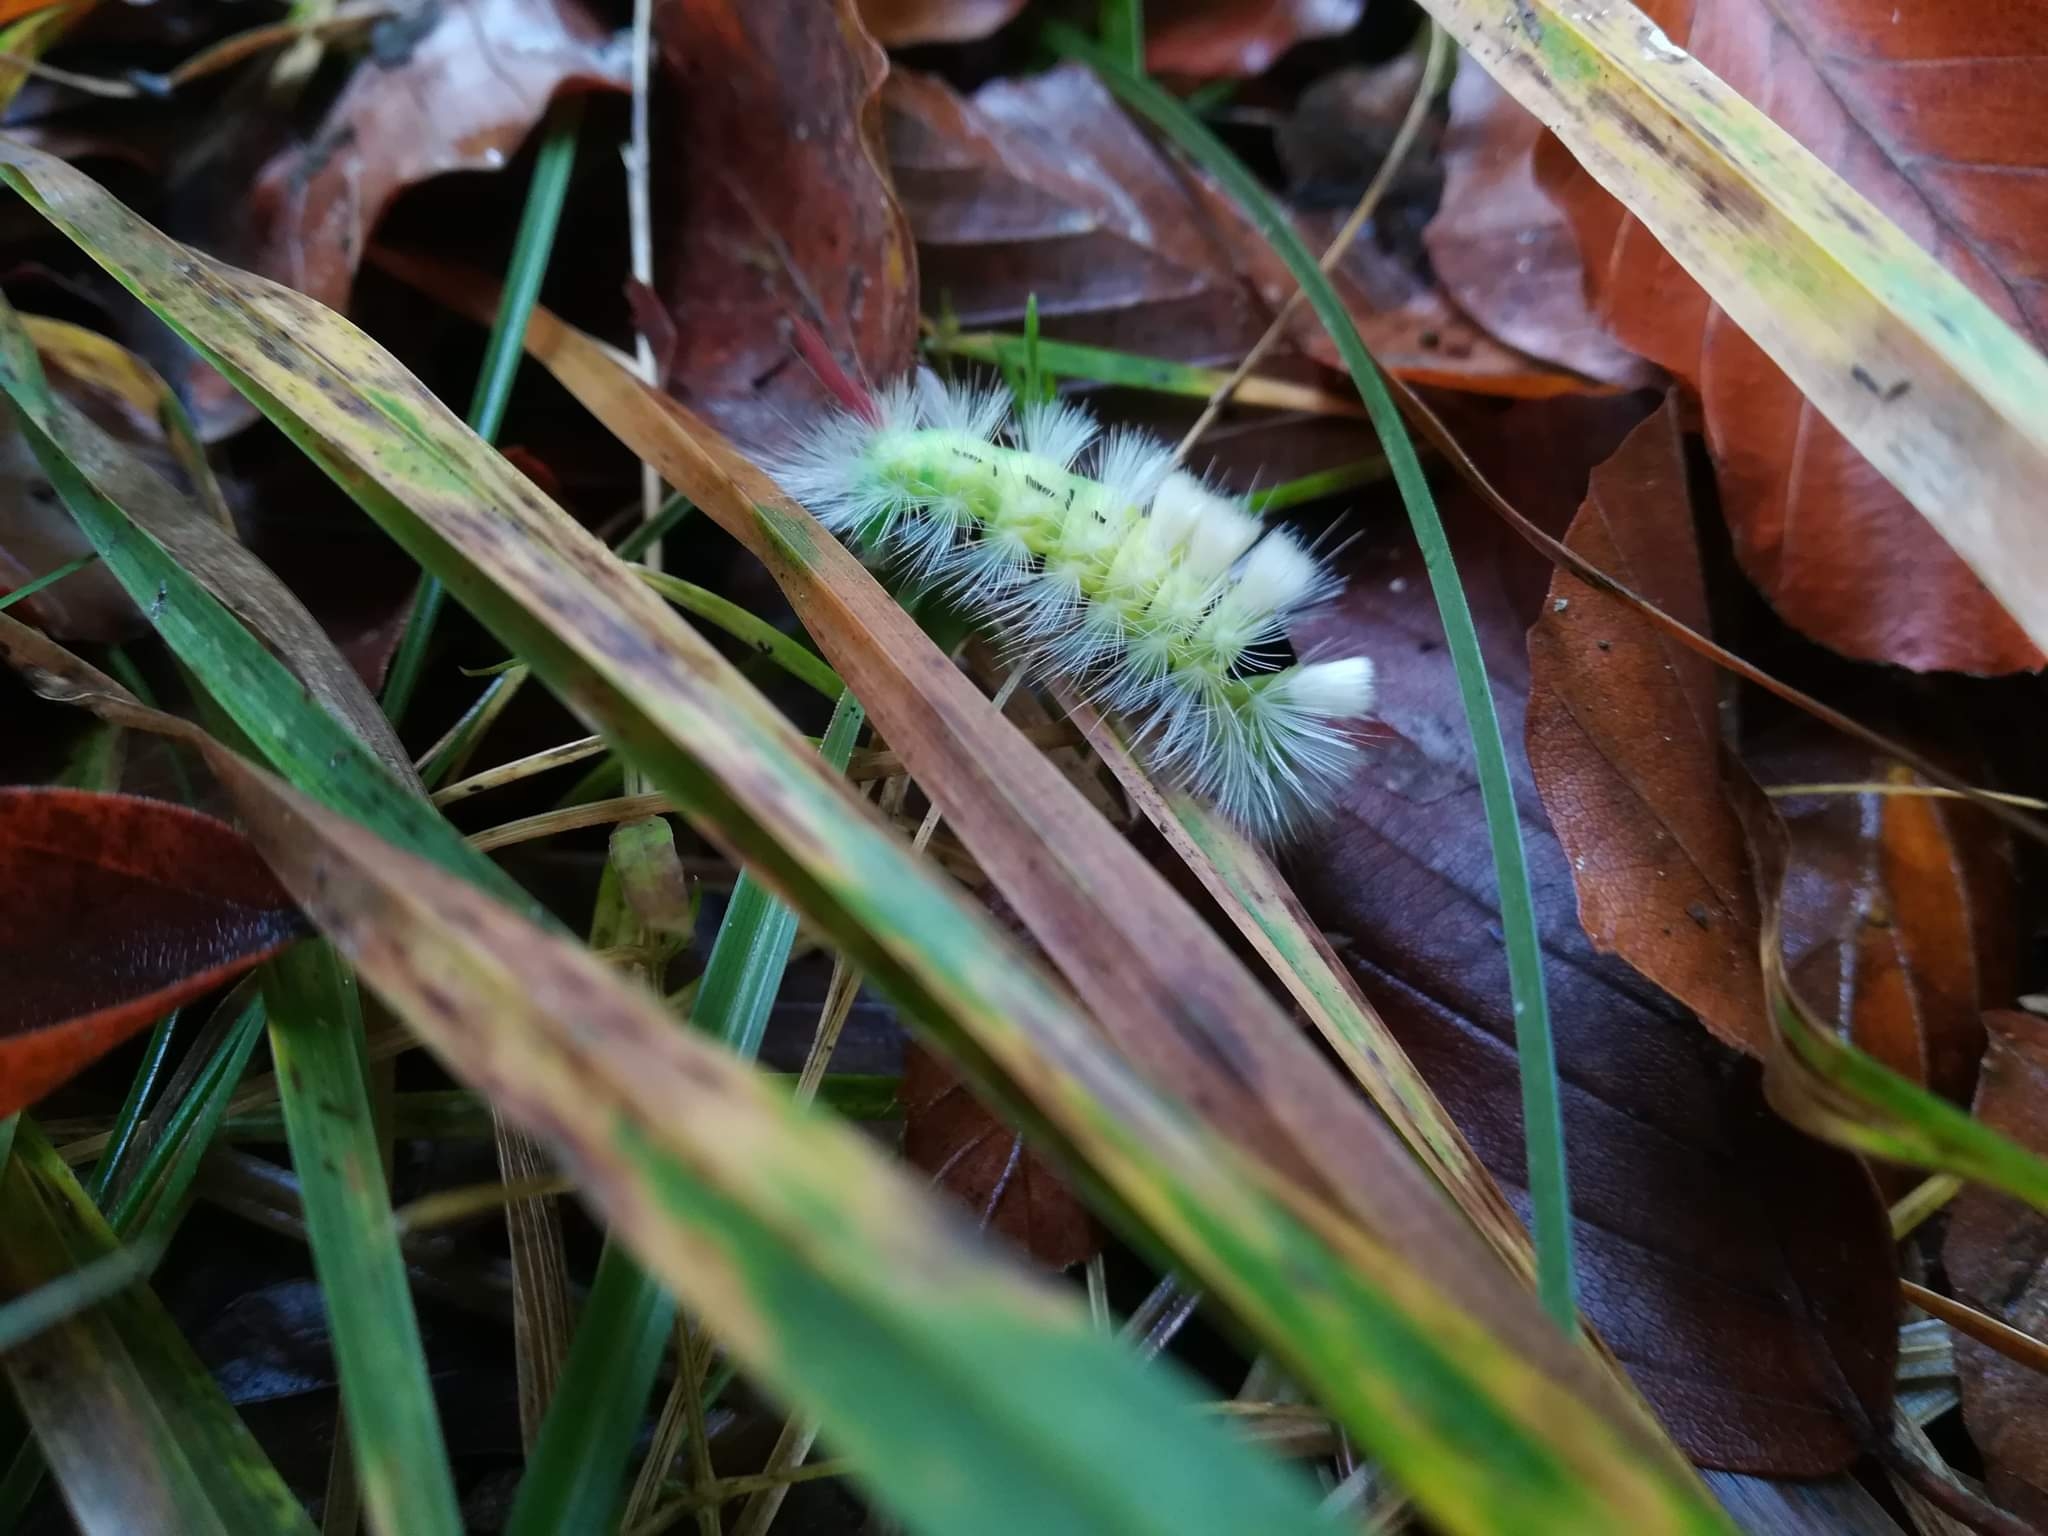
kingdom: Animalia
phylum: Arthropoda
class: Insecta
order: Lepidoptera
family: Erebidae
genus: Calliteara
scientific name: Calliteara pudibunda
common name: Bøgenonne
